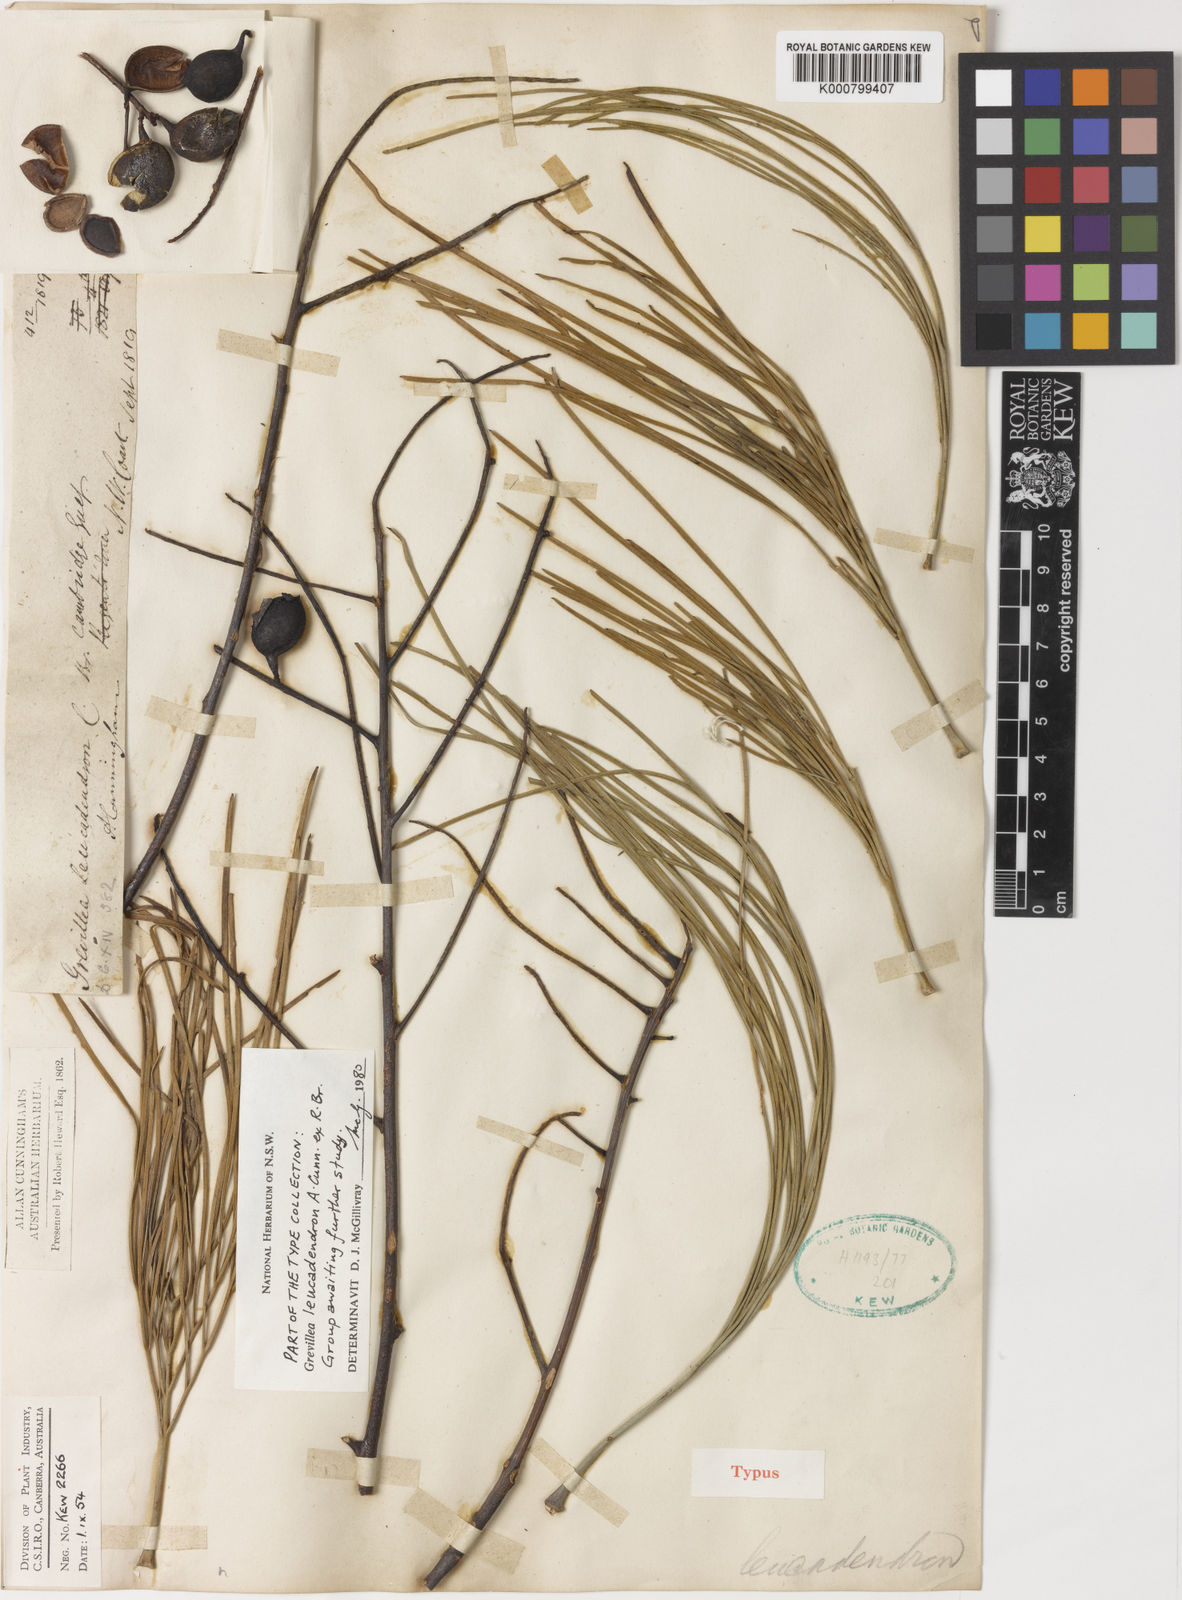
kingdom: Plantae
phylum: Tracheophyta
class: Magnoliopsida
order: Proteales
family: Proteaceae
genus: Grevillea
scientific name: Grevillea pyramidalis
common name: Caustictree
